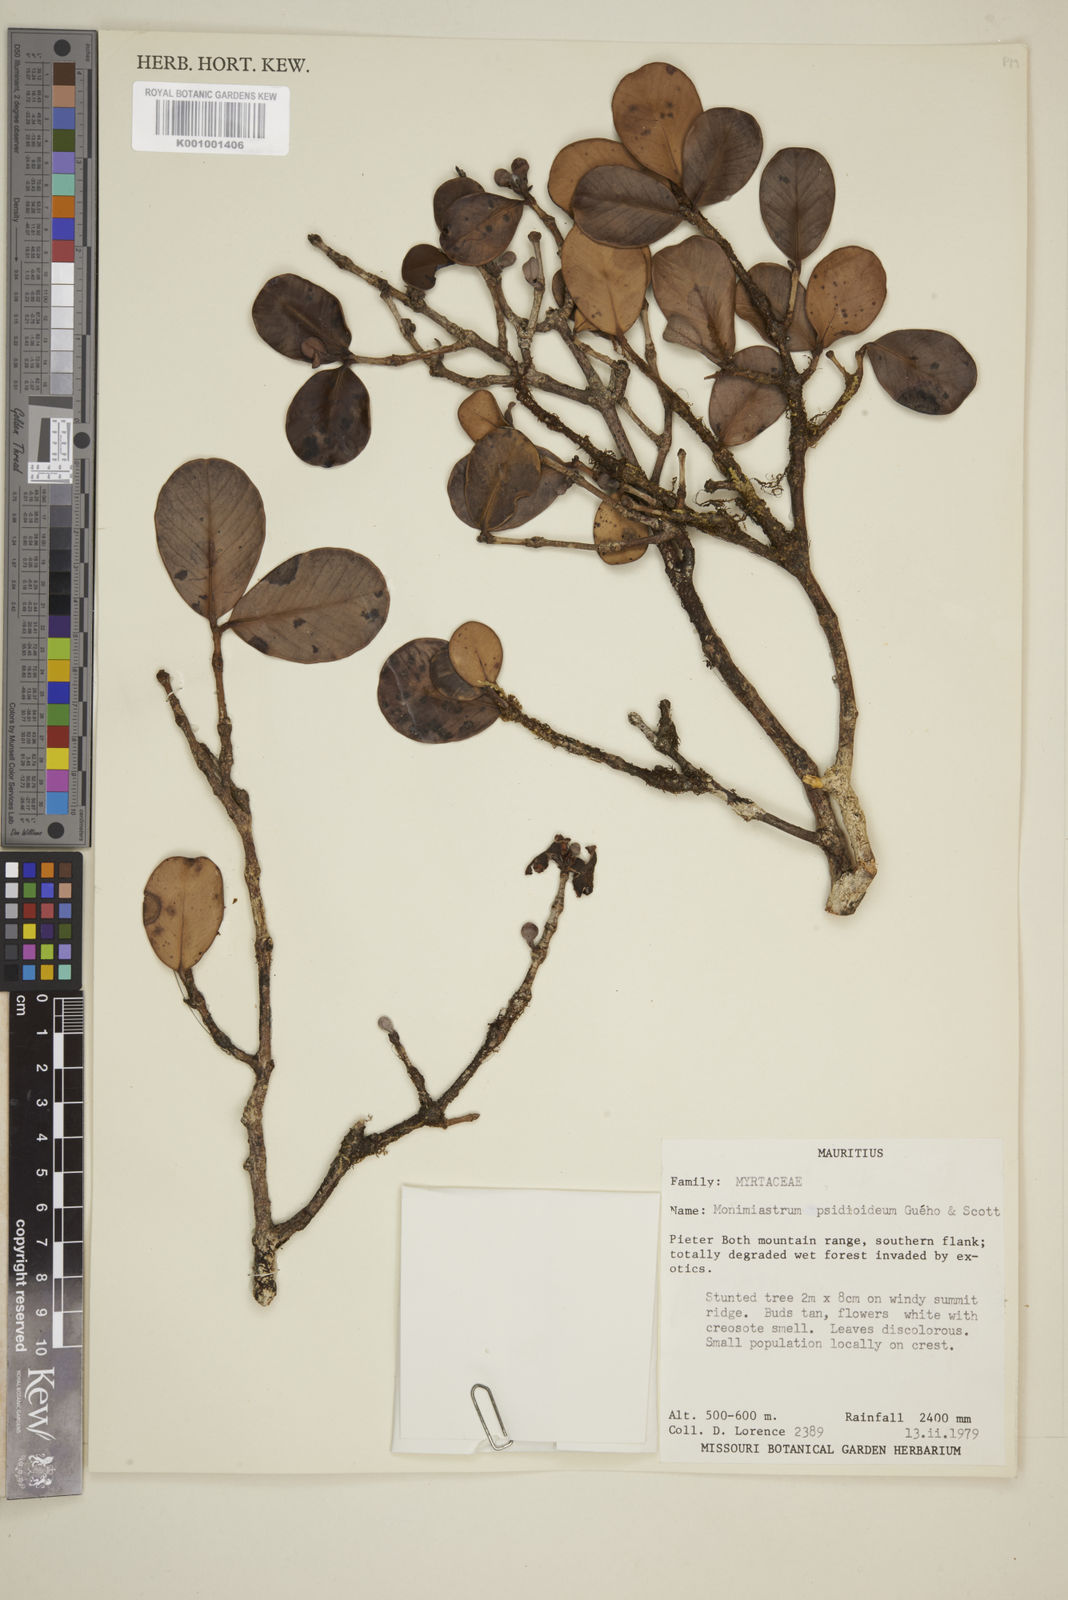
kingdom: Plantae
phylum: Tracheophyta
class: Magnoliopsida
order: Myrtales
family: Myrtaceae
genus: Eugenia
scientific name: Eugenia psidioidea
